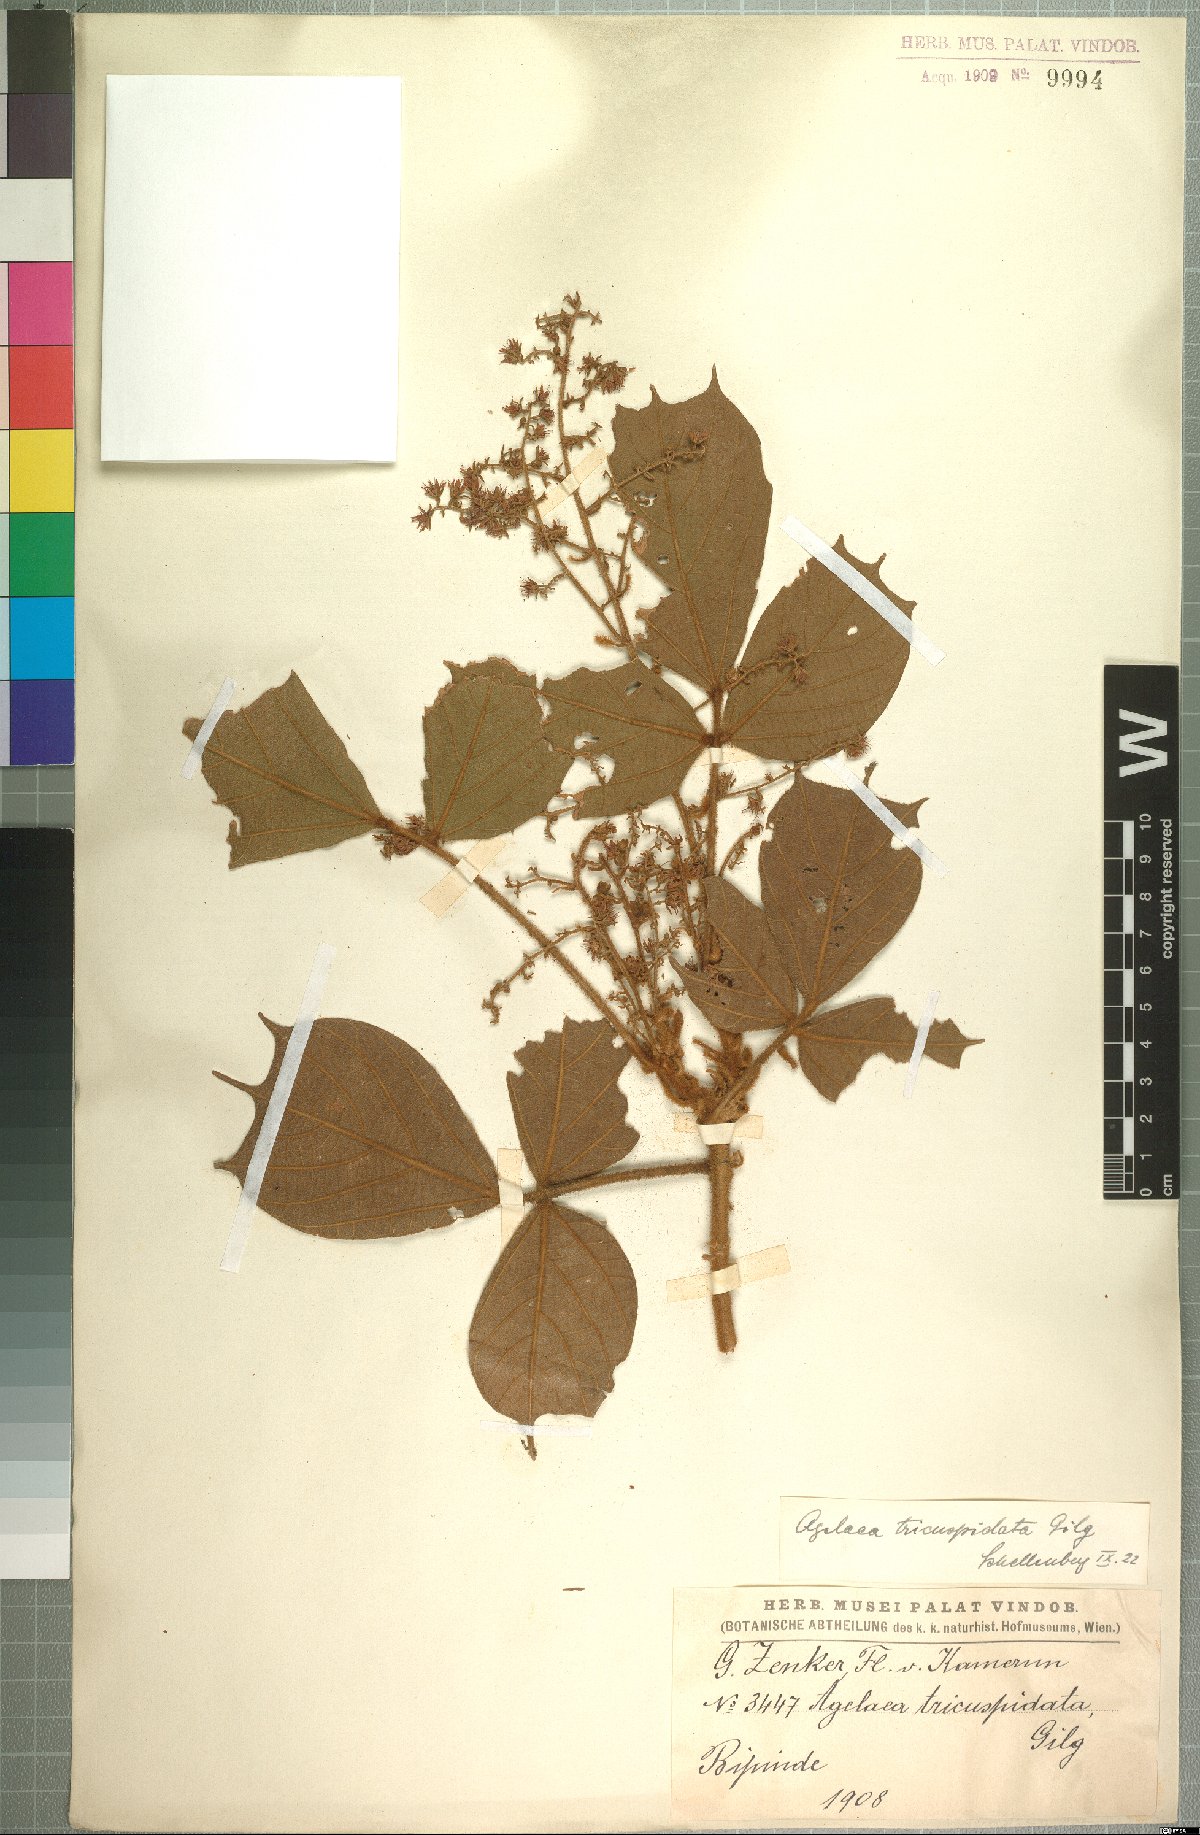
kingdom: Plantae
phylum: Tracheophyta
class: Magnoliopsida
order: Oxalidales
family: Connaraceae
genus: Agelaea
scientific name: Agelaea pentagyna
